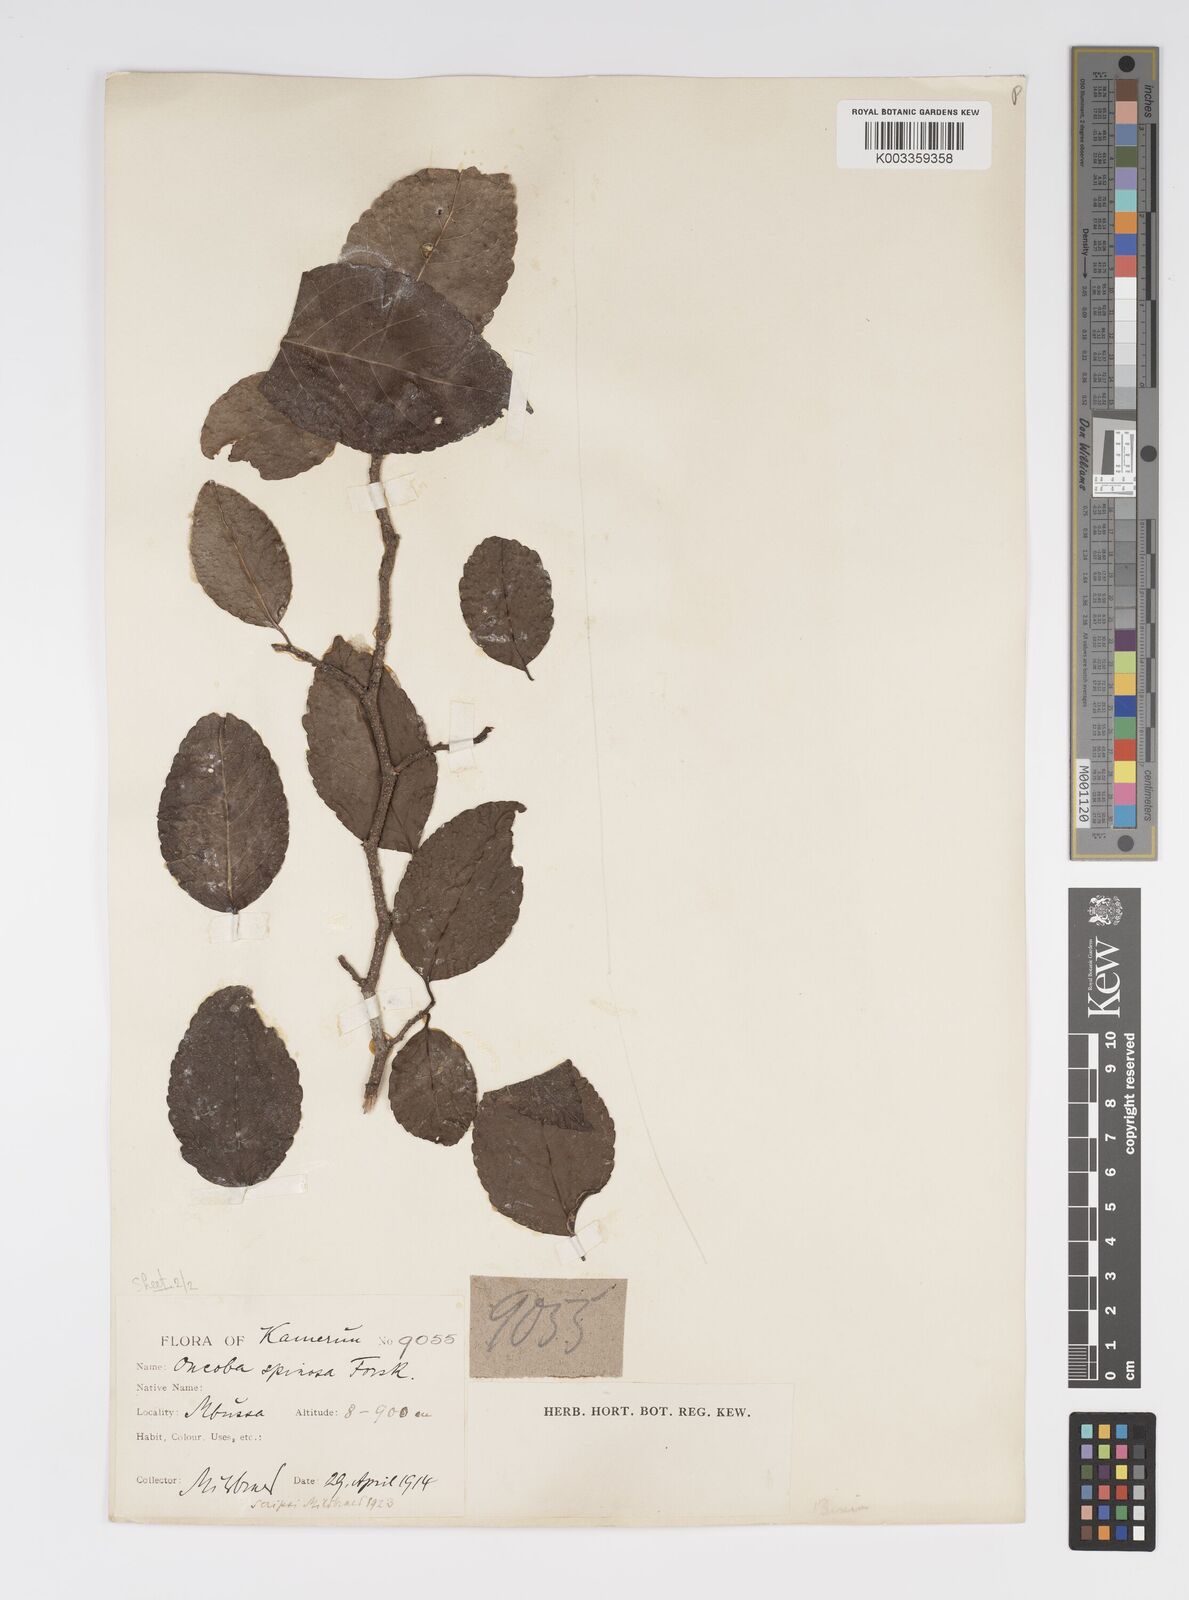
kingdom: Plantae
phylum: Tracheophyta
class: Magnoliopsida
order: Malpighiales
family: Salicaceae
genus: Oncoba
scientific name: Oncoba spinosa
